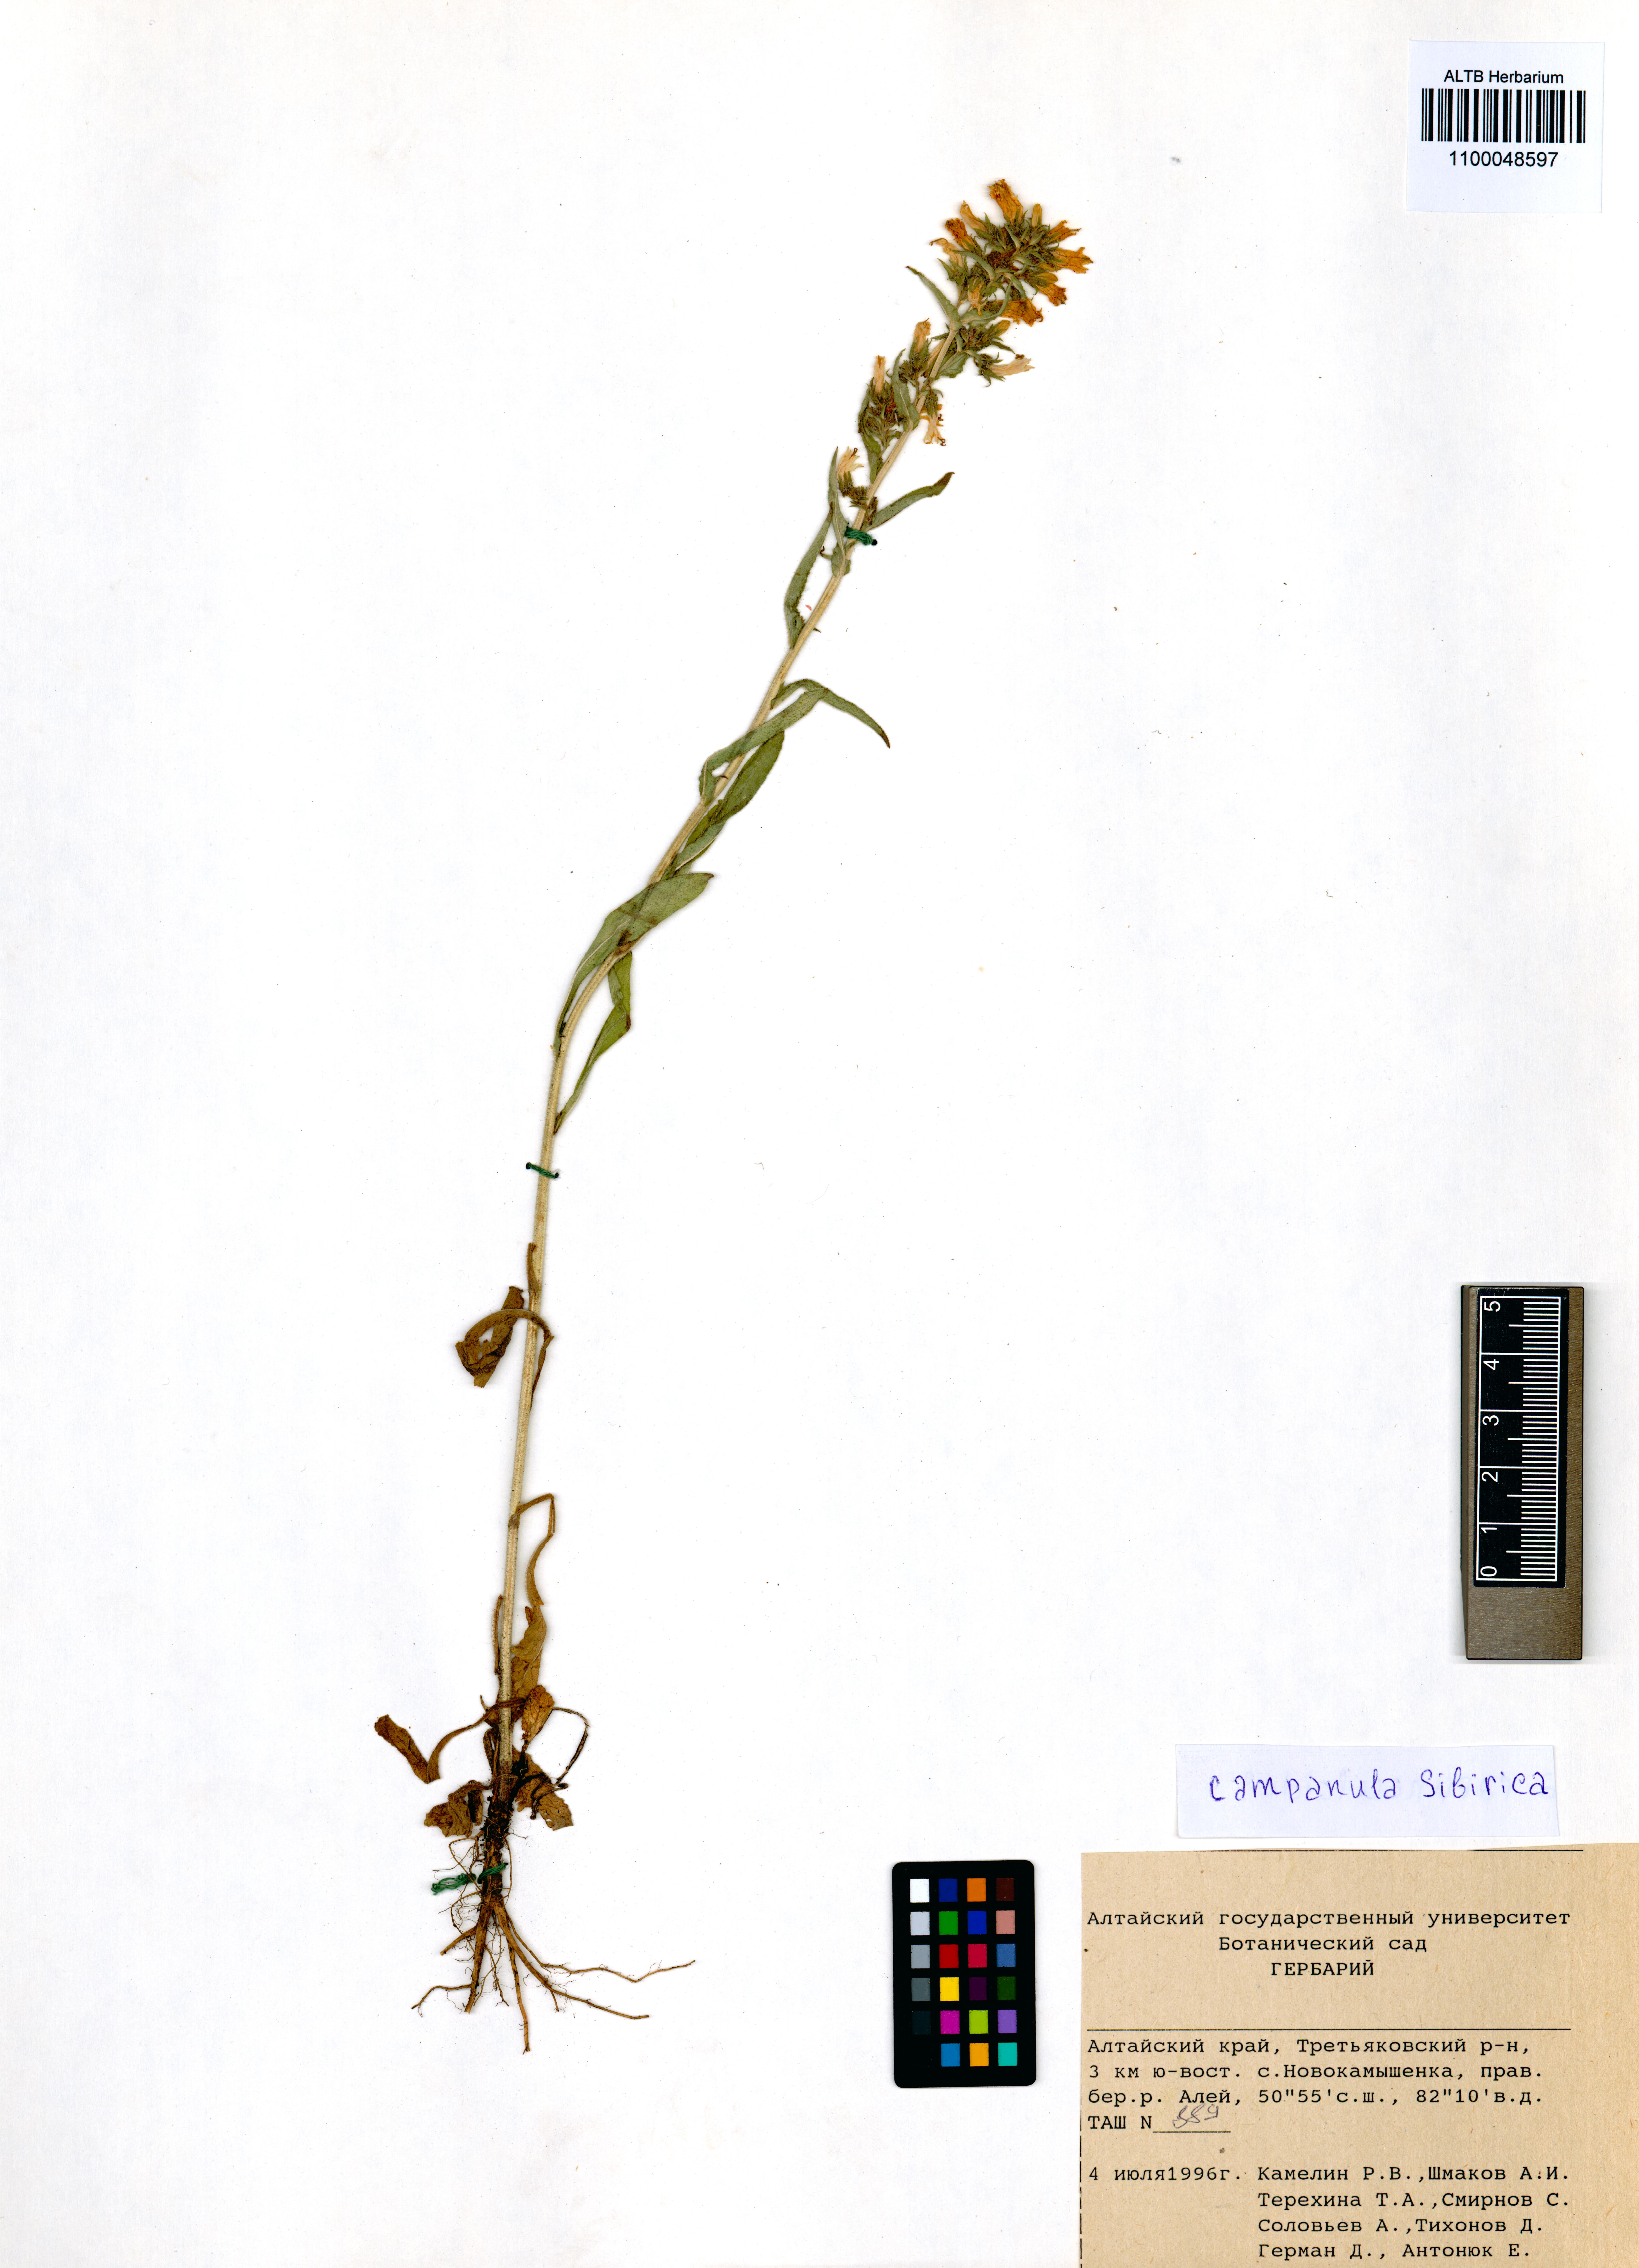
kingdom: Plantae
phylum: Tracheophyta
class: Magnoliopsida
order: Asterales
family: Campanulaceae
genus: Campanula
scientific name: Campanula sibirica
